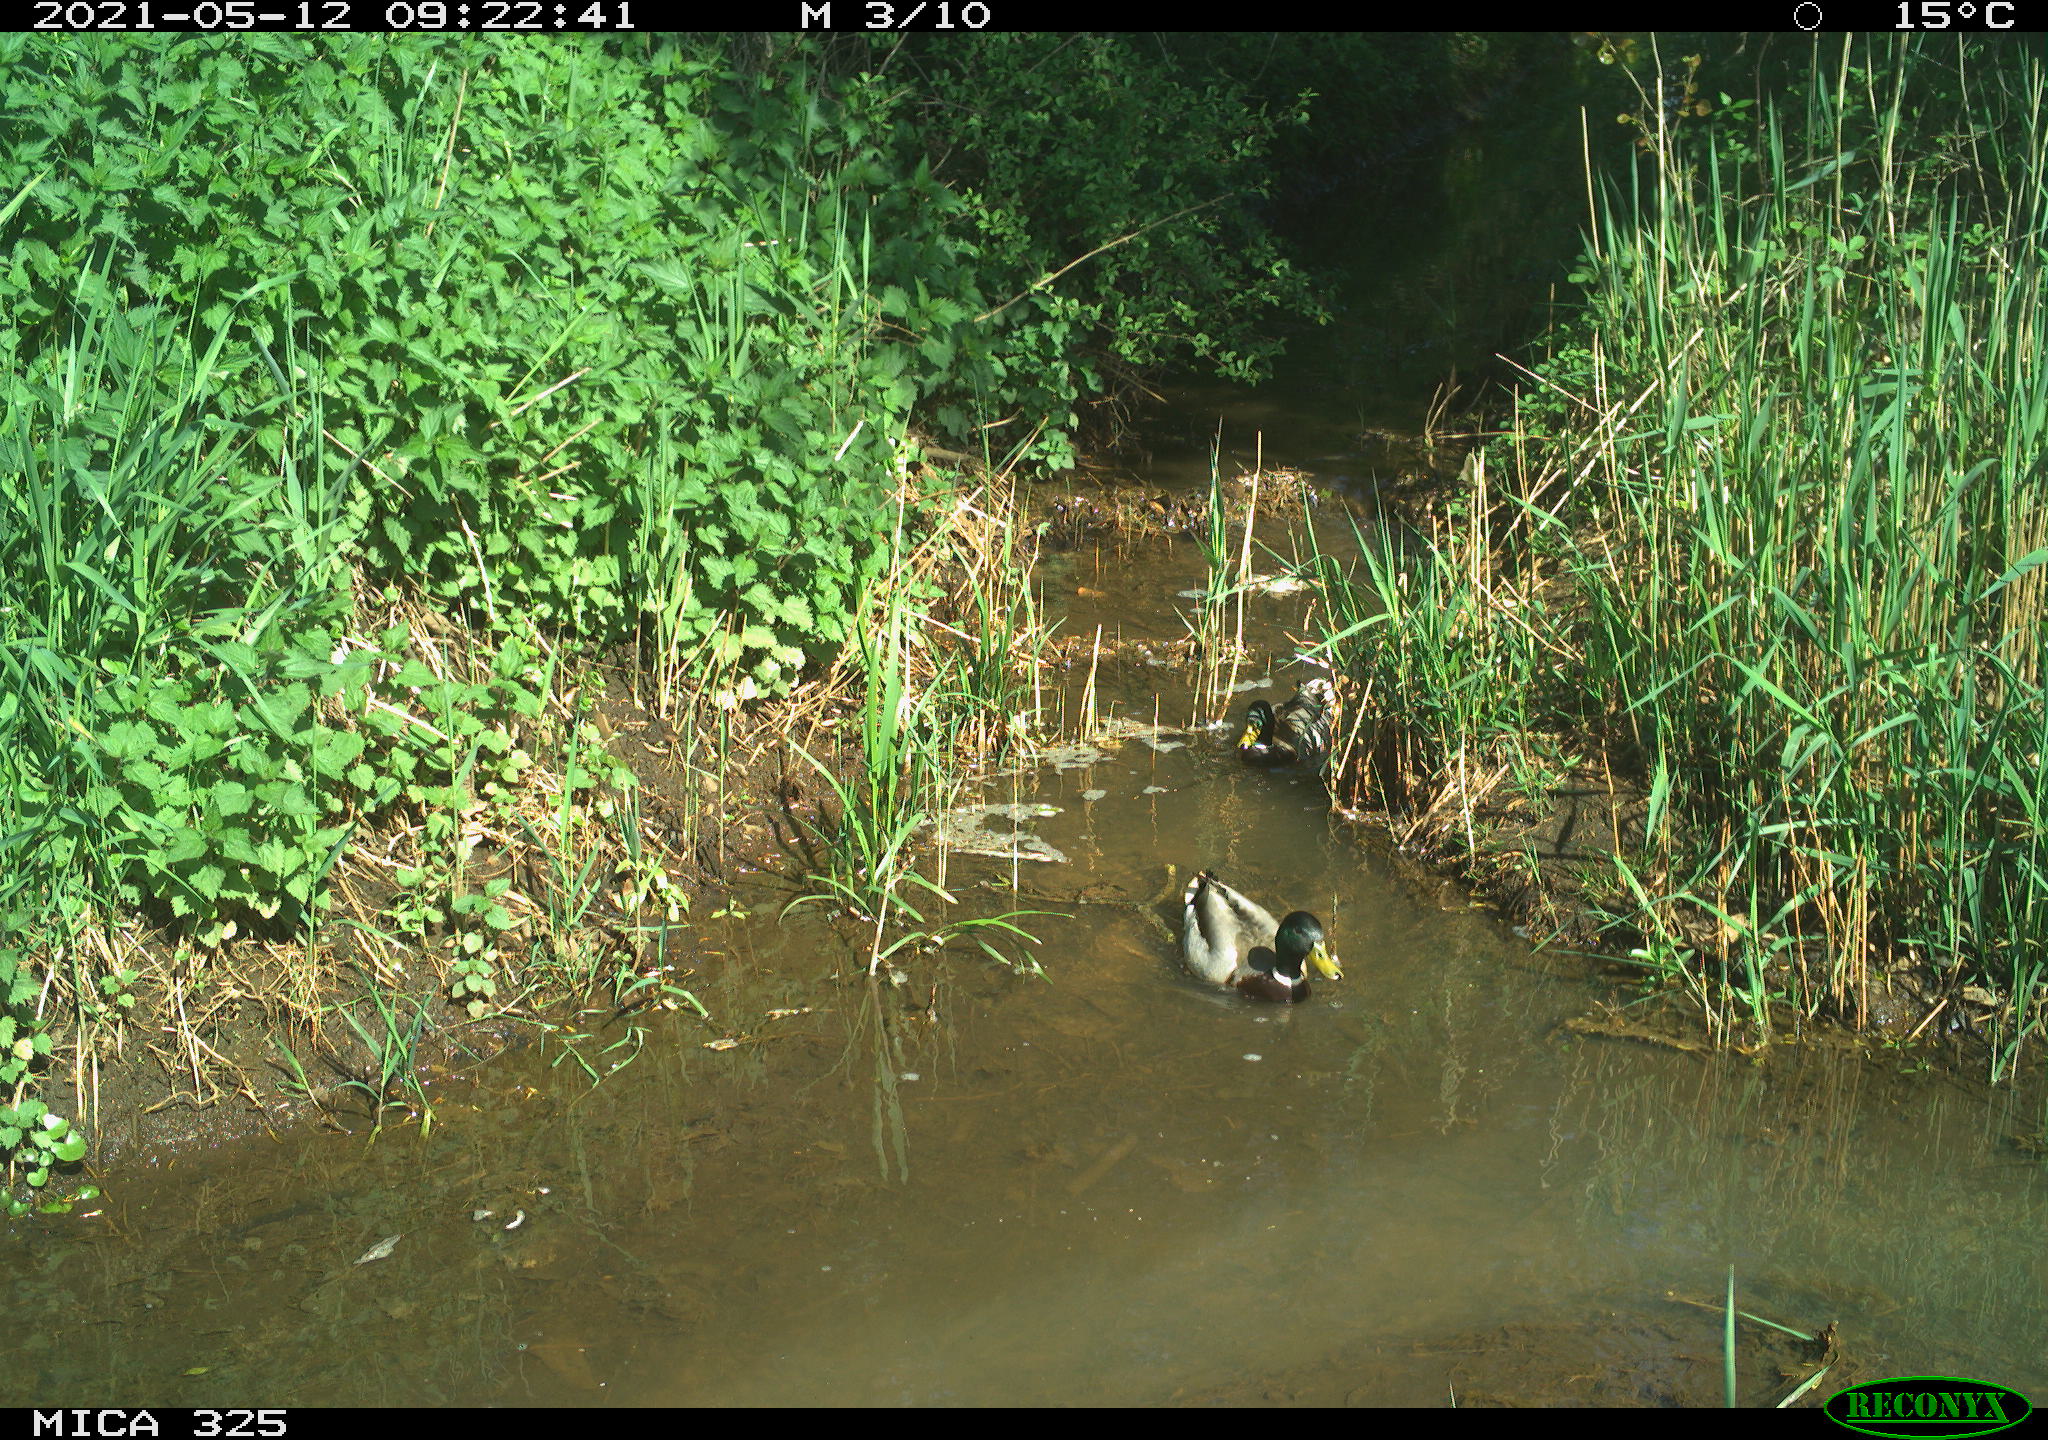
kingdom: Animalia
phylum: Chordata
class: Aves
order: Anseriformes
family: Anatidae
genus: Anas
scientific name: Anas platyrhynchos
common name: Mallard
